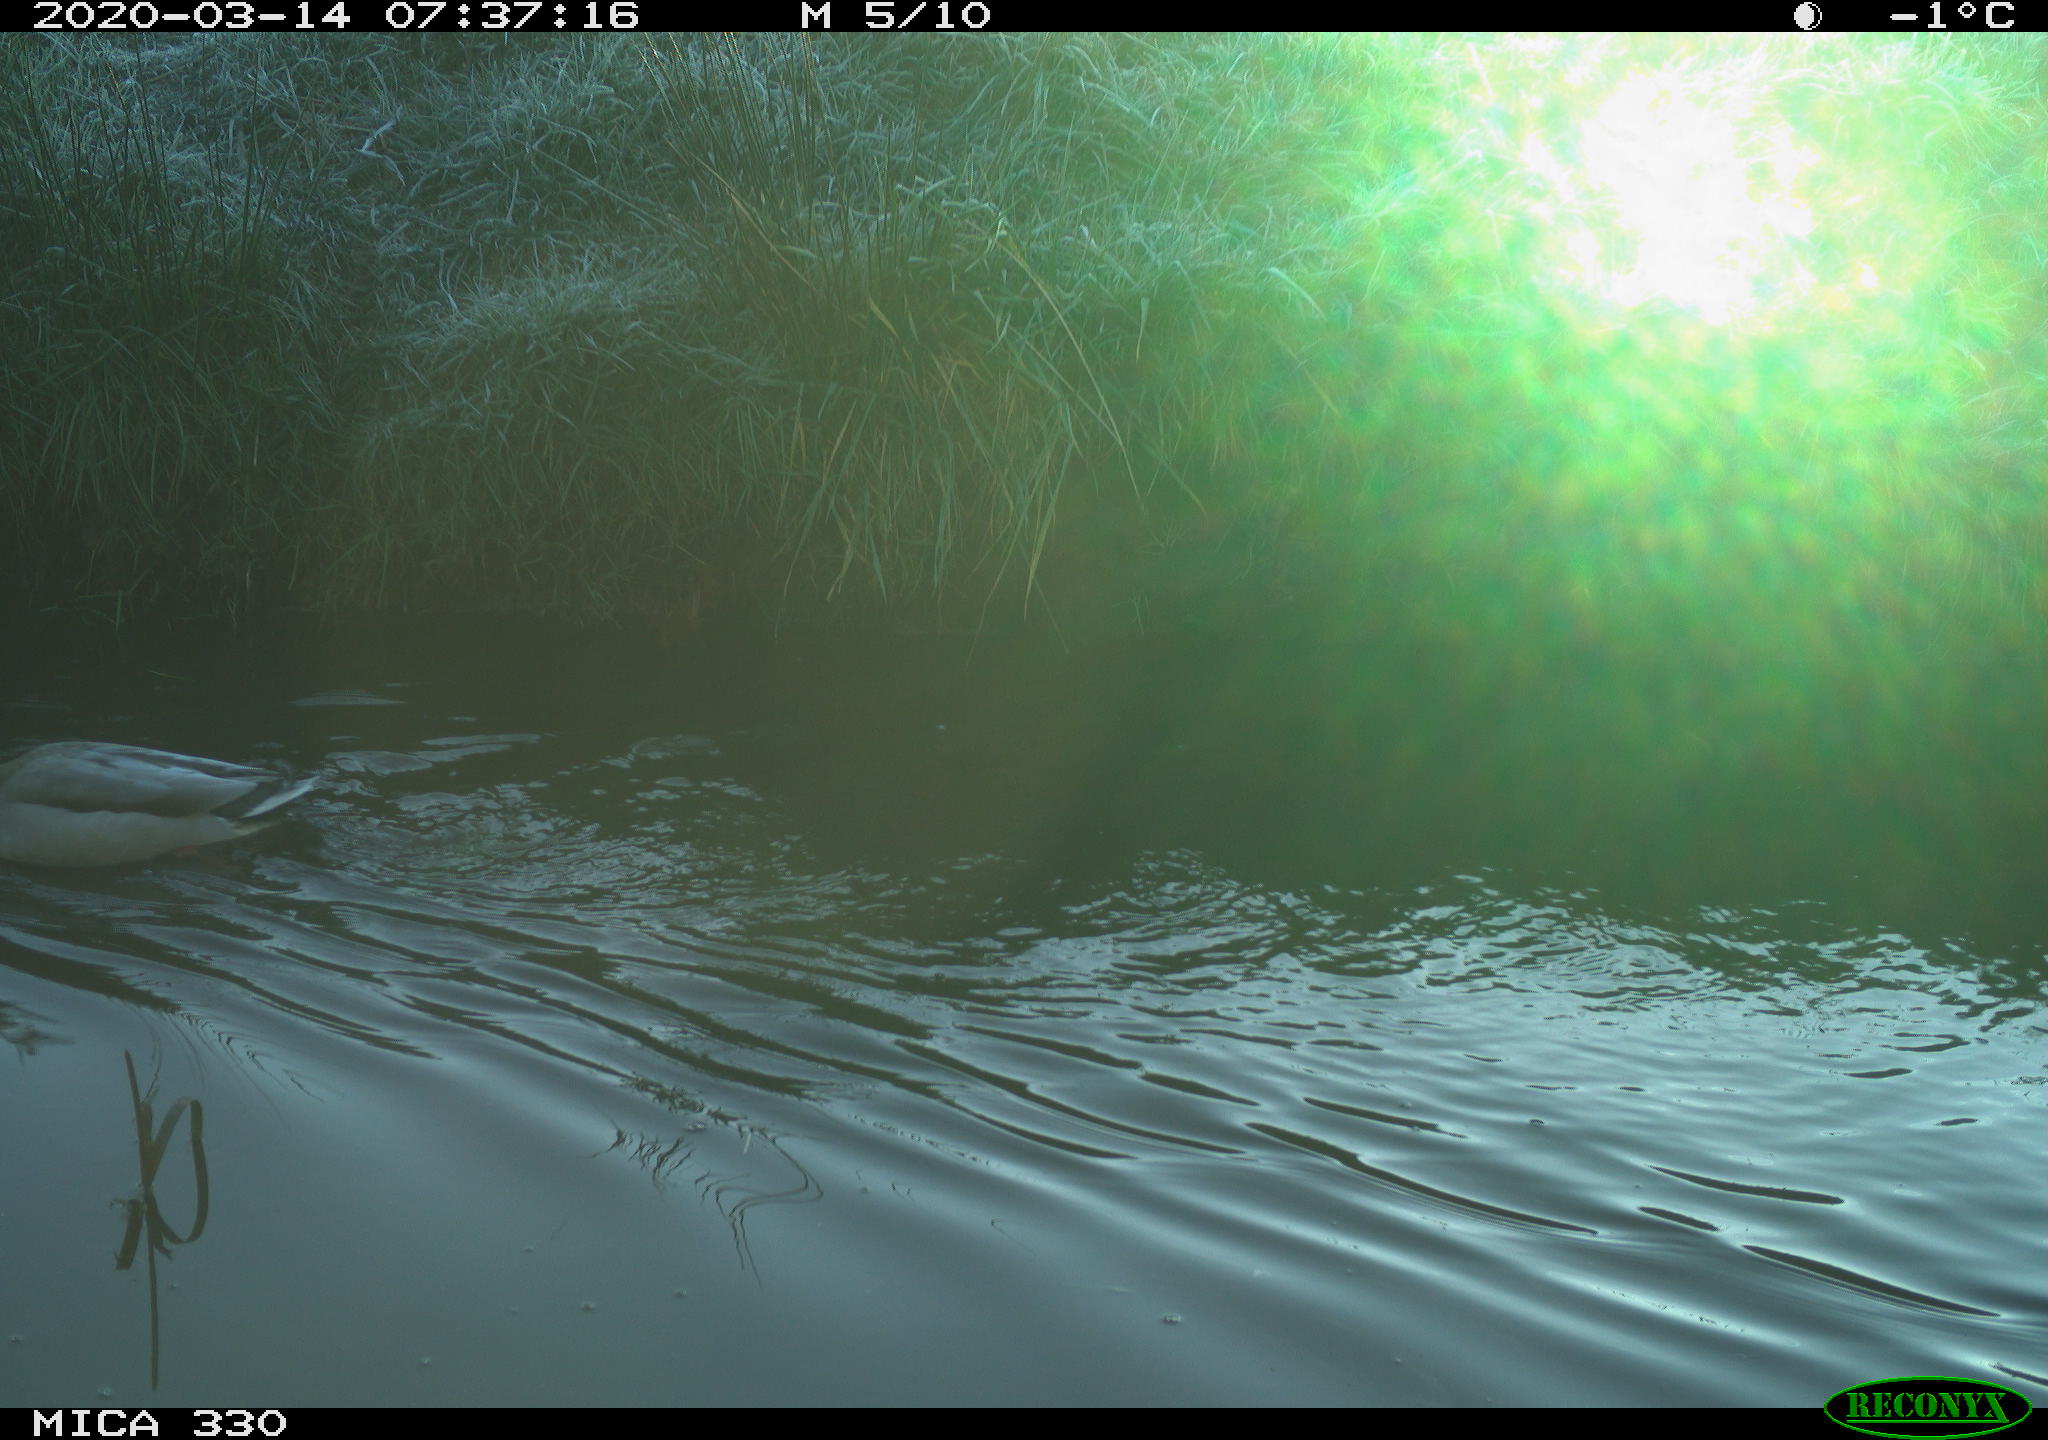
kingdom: Animalia
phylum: Chordata
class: Aves
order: Anseriformes
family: Anatidae
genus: Anas
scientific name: Anas platyrhynchos
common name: Mallard
